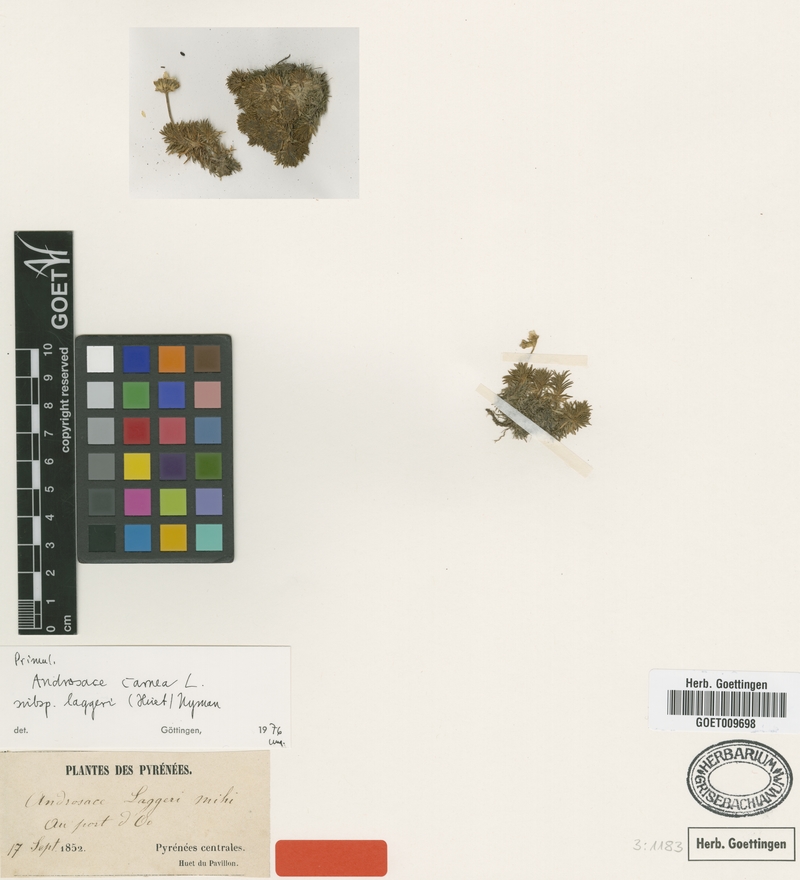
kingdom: Plantae
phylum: Tracheophyta
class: Magnoliopsida
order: Ericales
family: Primulaceae
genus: Androsace
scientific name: Androsace laggeri
